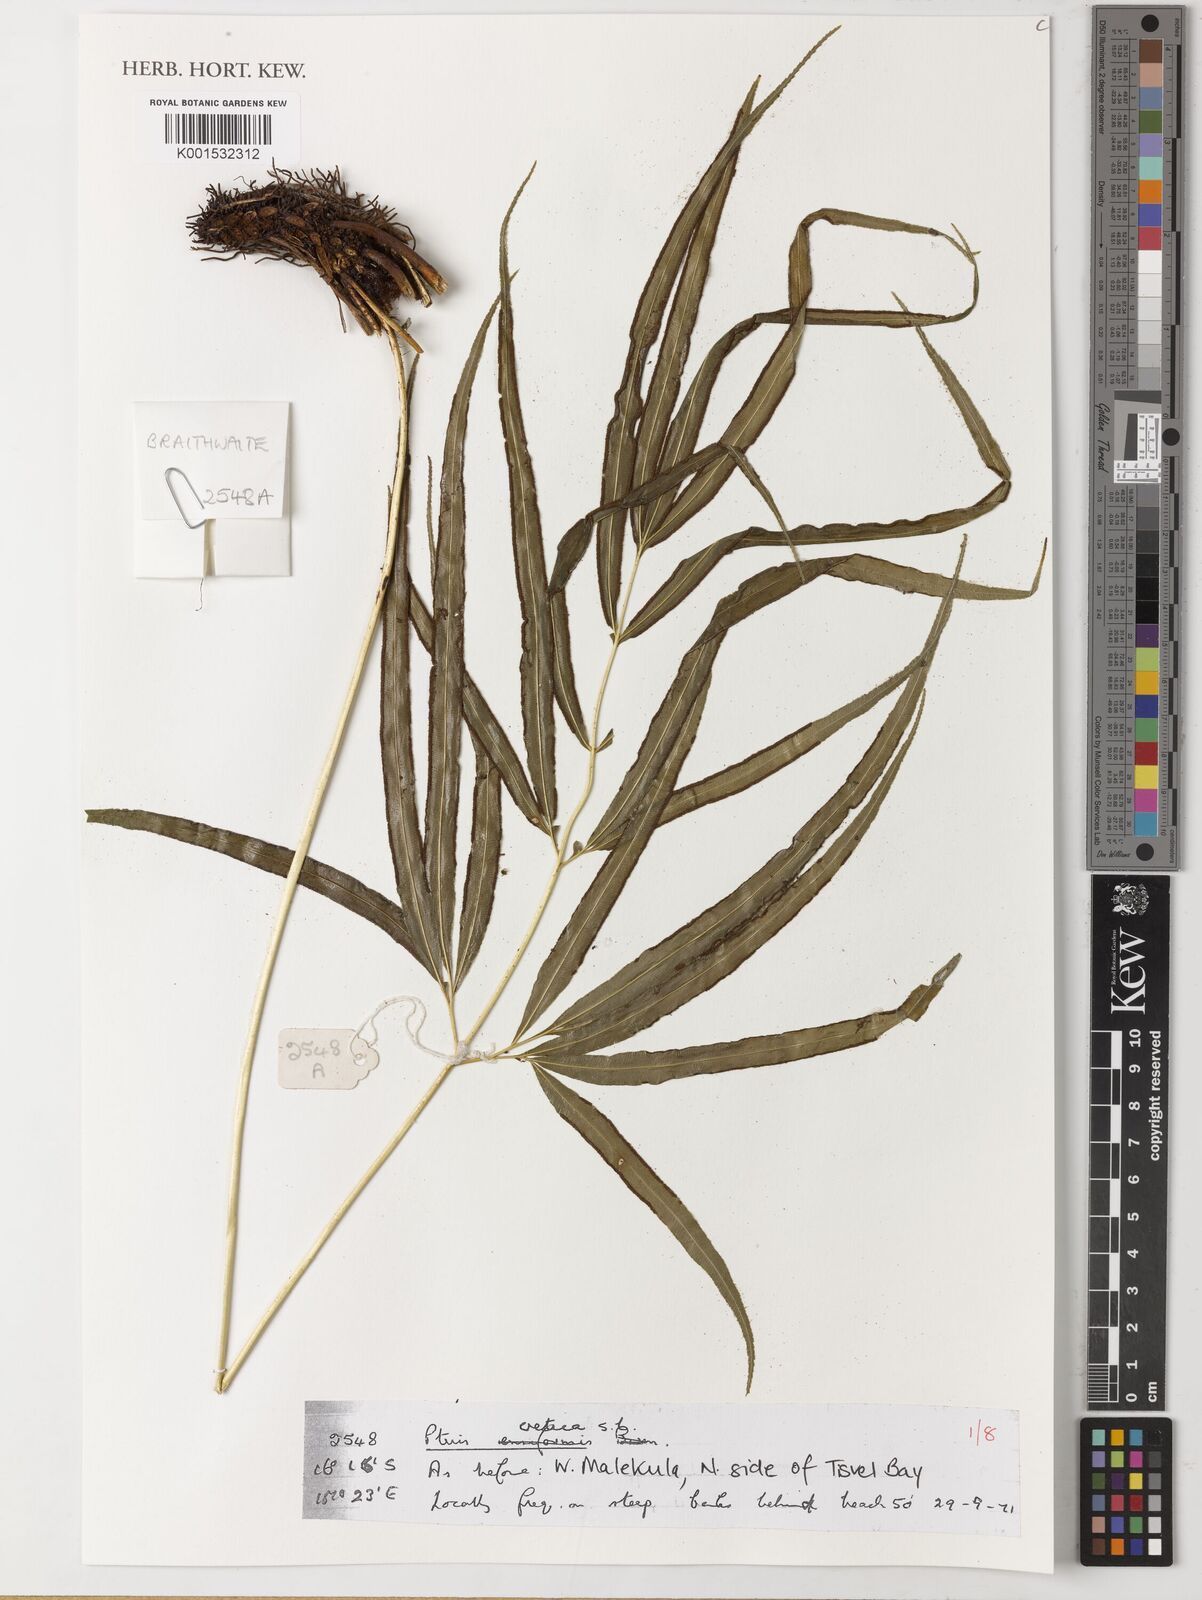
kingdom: Plantae
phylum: Tracheophyta
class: Polypodiopsida
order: Polypodiales
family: Pteridaceae
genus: Pteris
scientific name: Pteris cretica
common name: Ribbon fern
